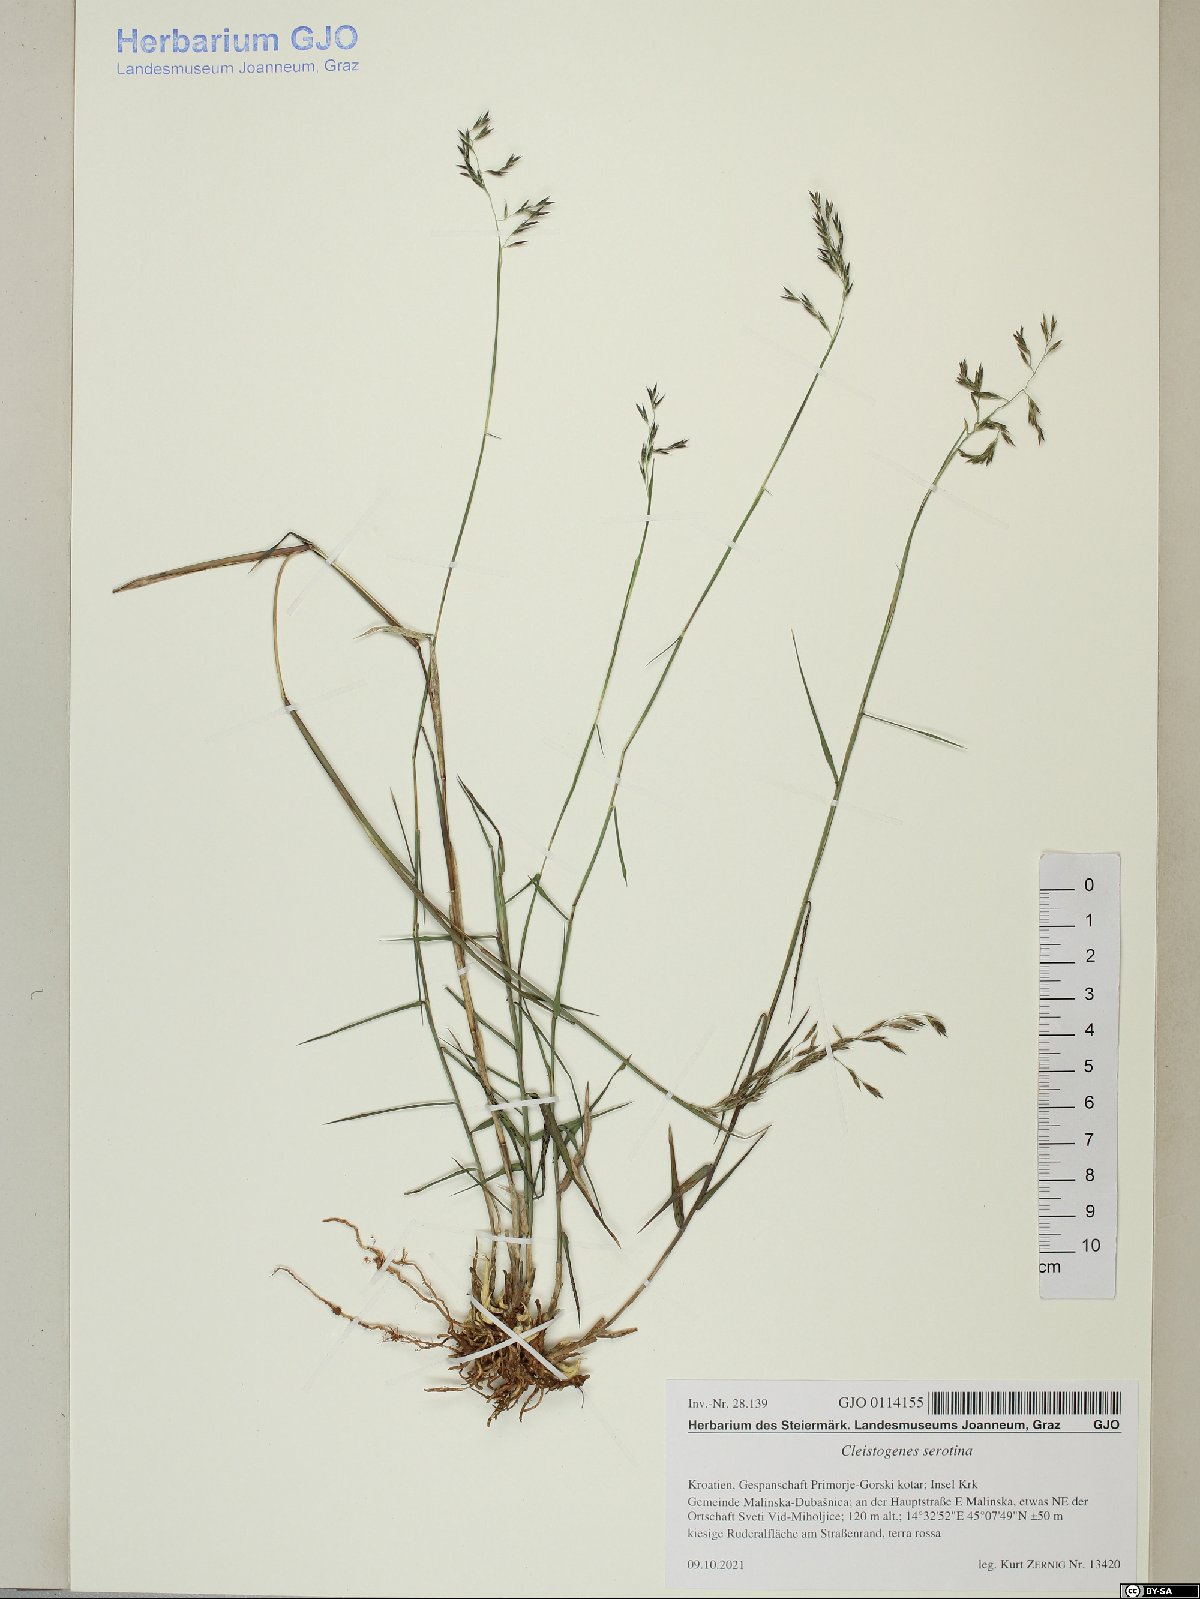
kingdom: Plantae
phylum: Tracheophyta
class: Liliopsida
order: Poales
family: Poaceae
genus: Cleistogenes
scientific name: Cleistogenes serotina
